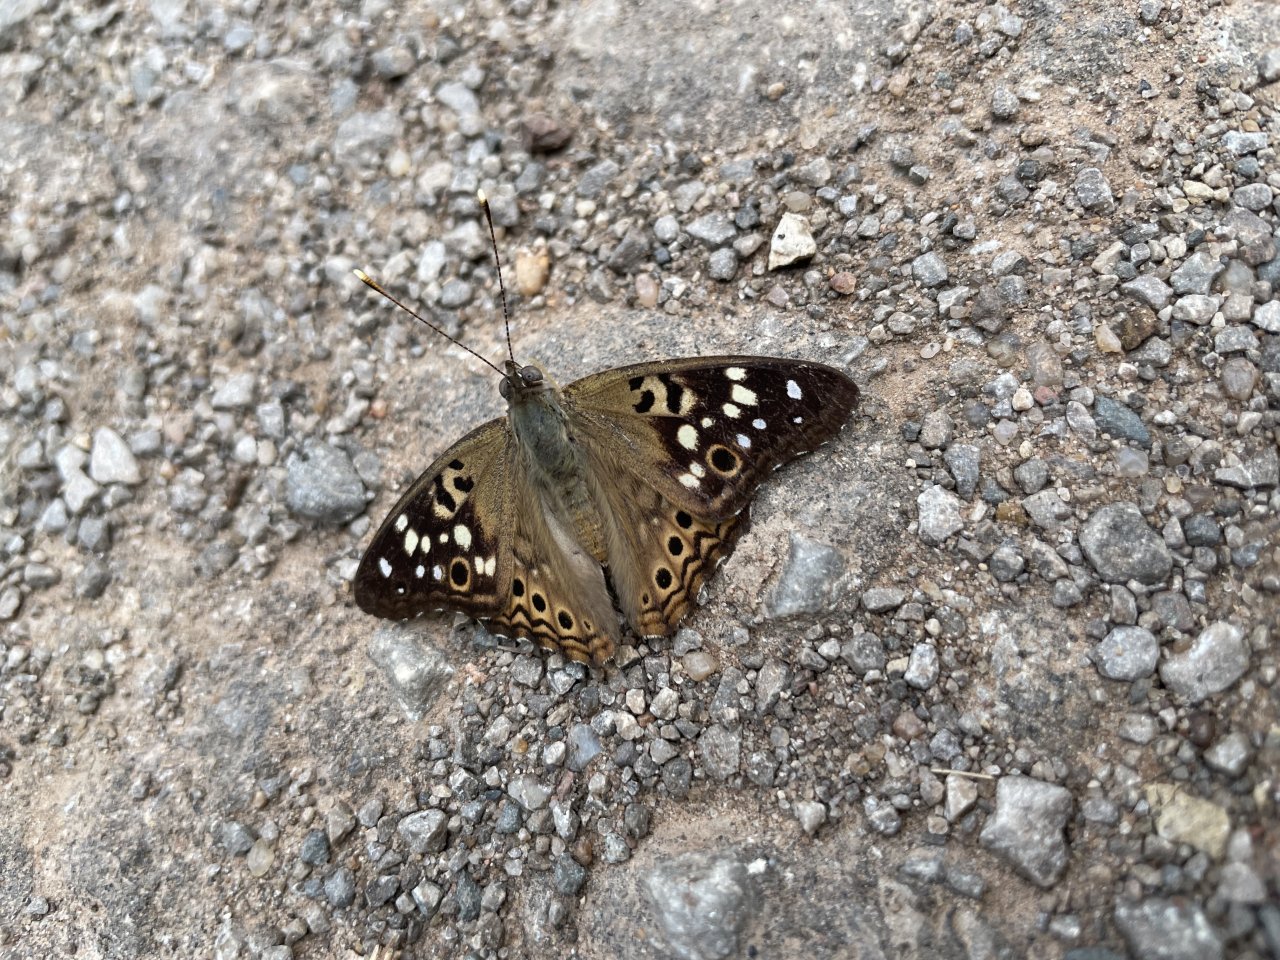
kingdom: Animalia
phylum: Arthropoda
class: Insecta
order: Lepidoptera
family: Nymphalidae
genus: Asterocampa
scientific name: Asterocampa celtis
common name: Hackberry Emperor
